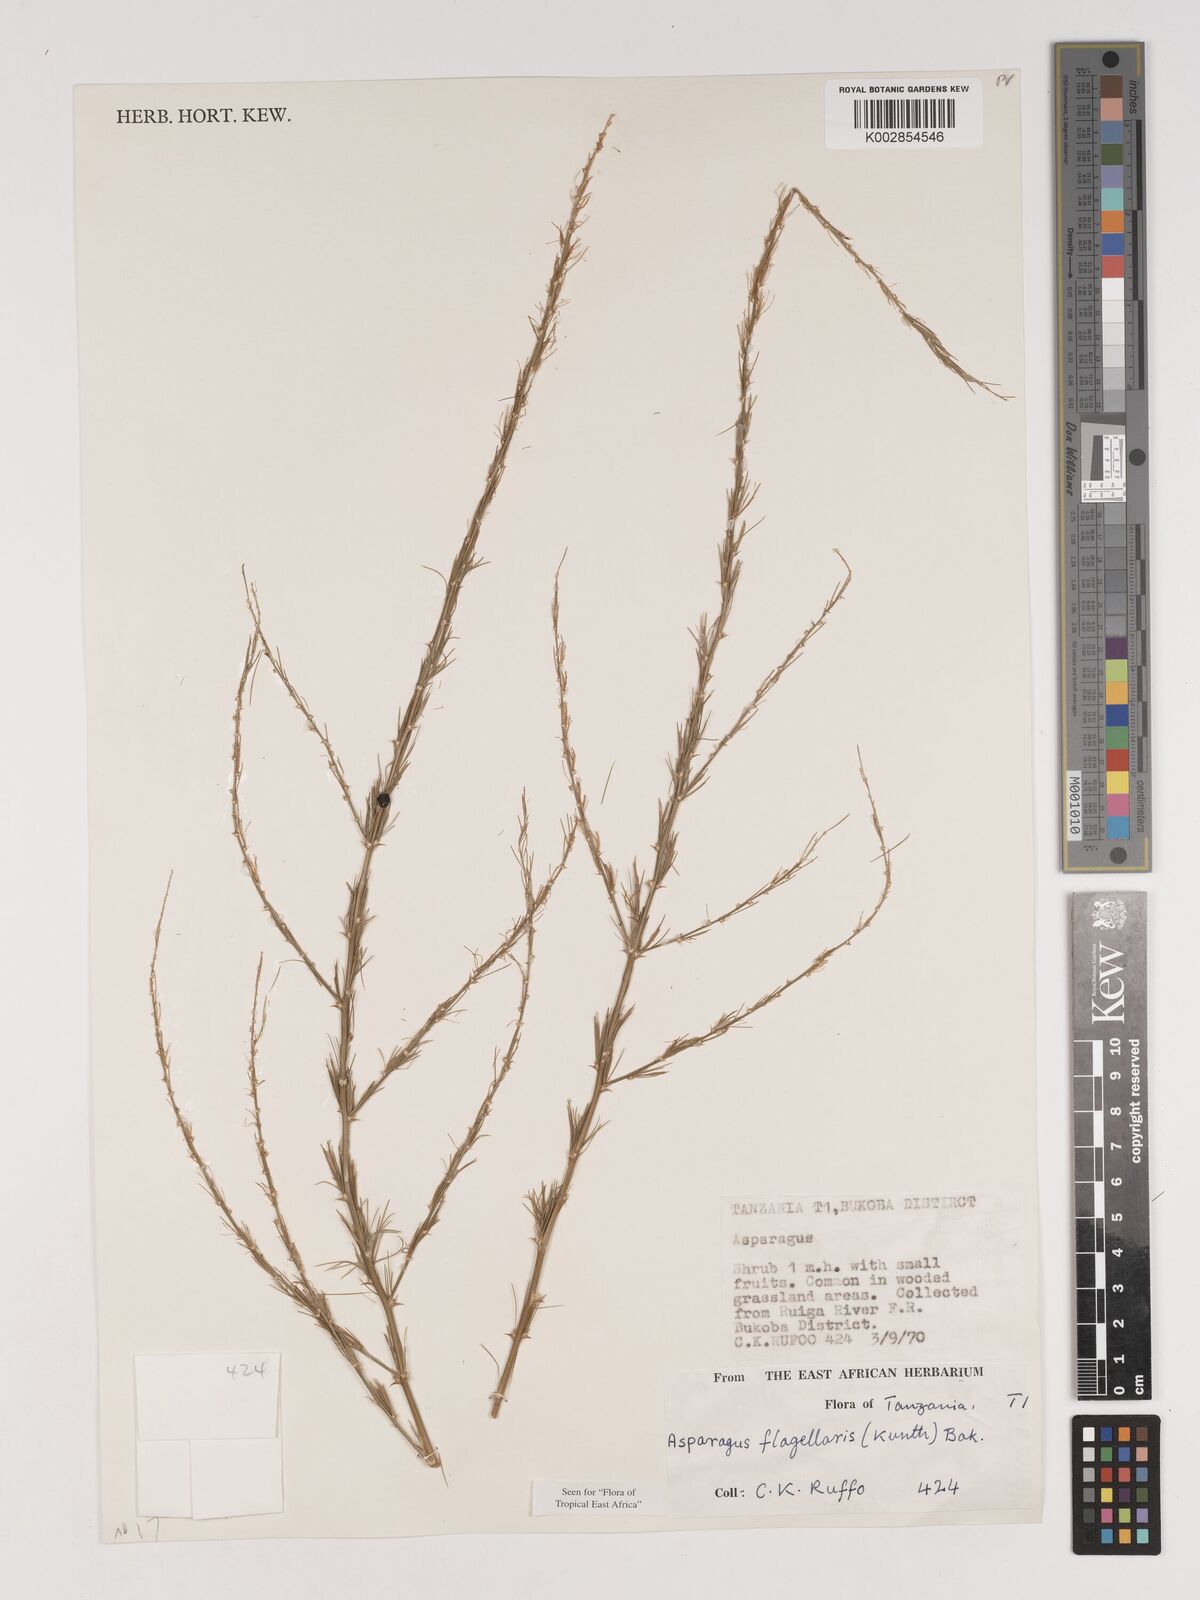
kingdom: Plantae
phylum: Tracheophyta
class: Liliopsida
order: Asparagales
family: Asparagaceae
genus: Asparagus
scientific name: Asparagus flagellaris
